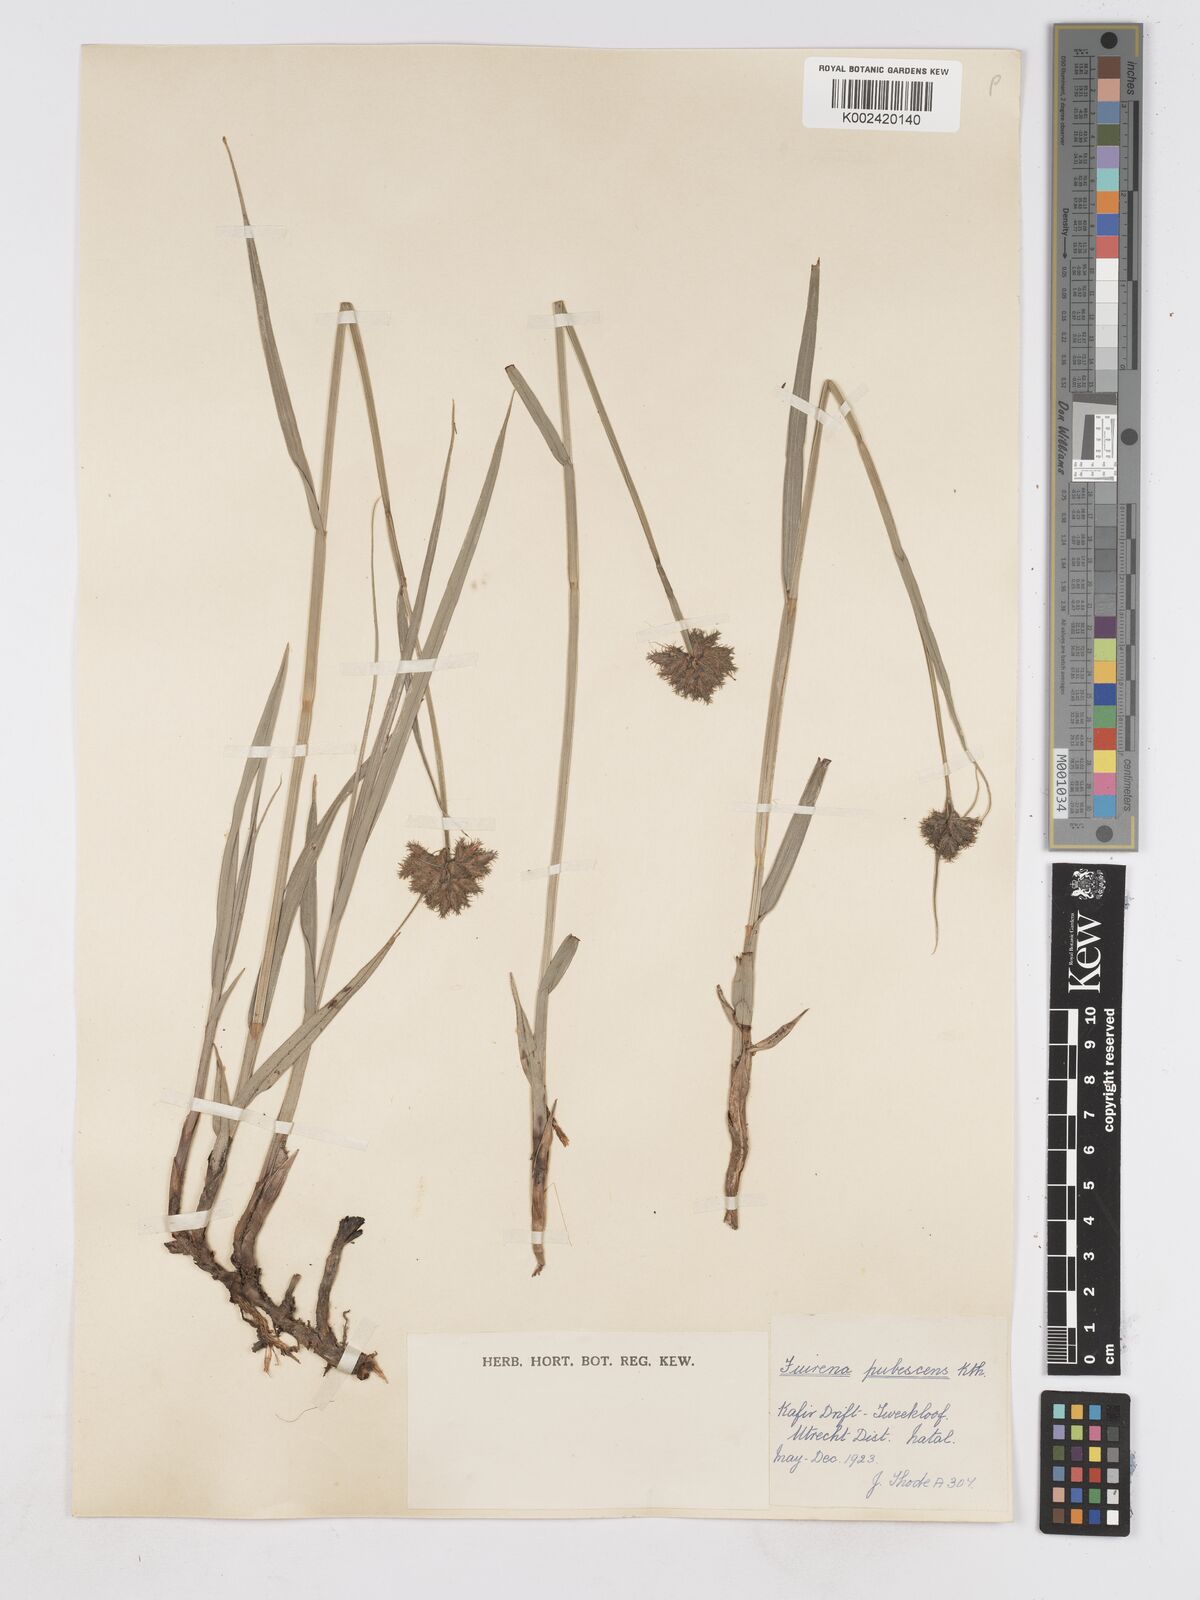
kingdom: Plantae
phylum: Tracheophyta
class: Liliopsida
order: Poales
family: Cyperaceae
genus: Fuirena
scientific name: Fuirena pubescens
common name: Hairy sedge
